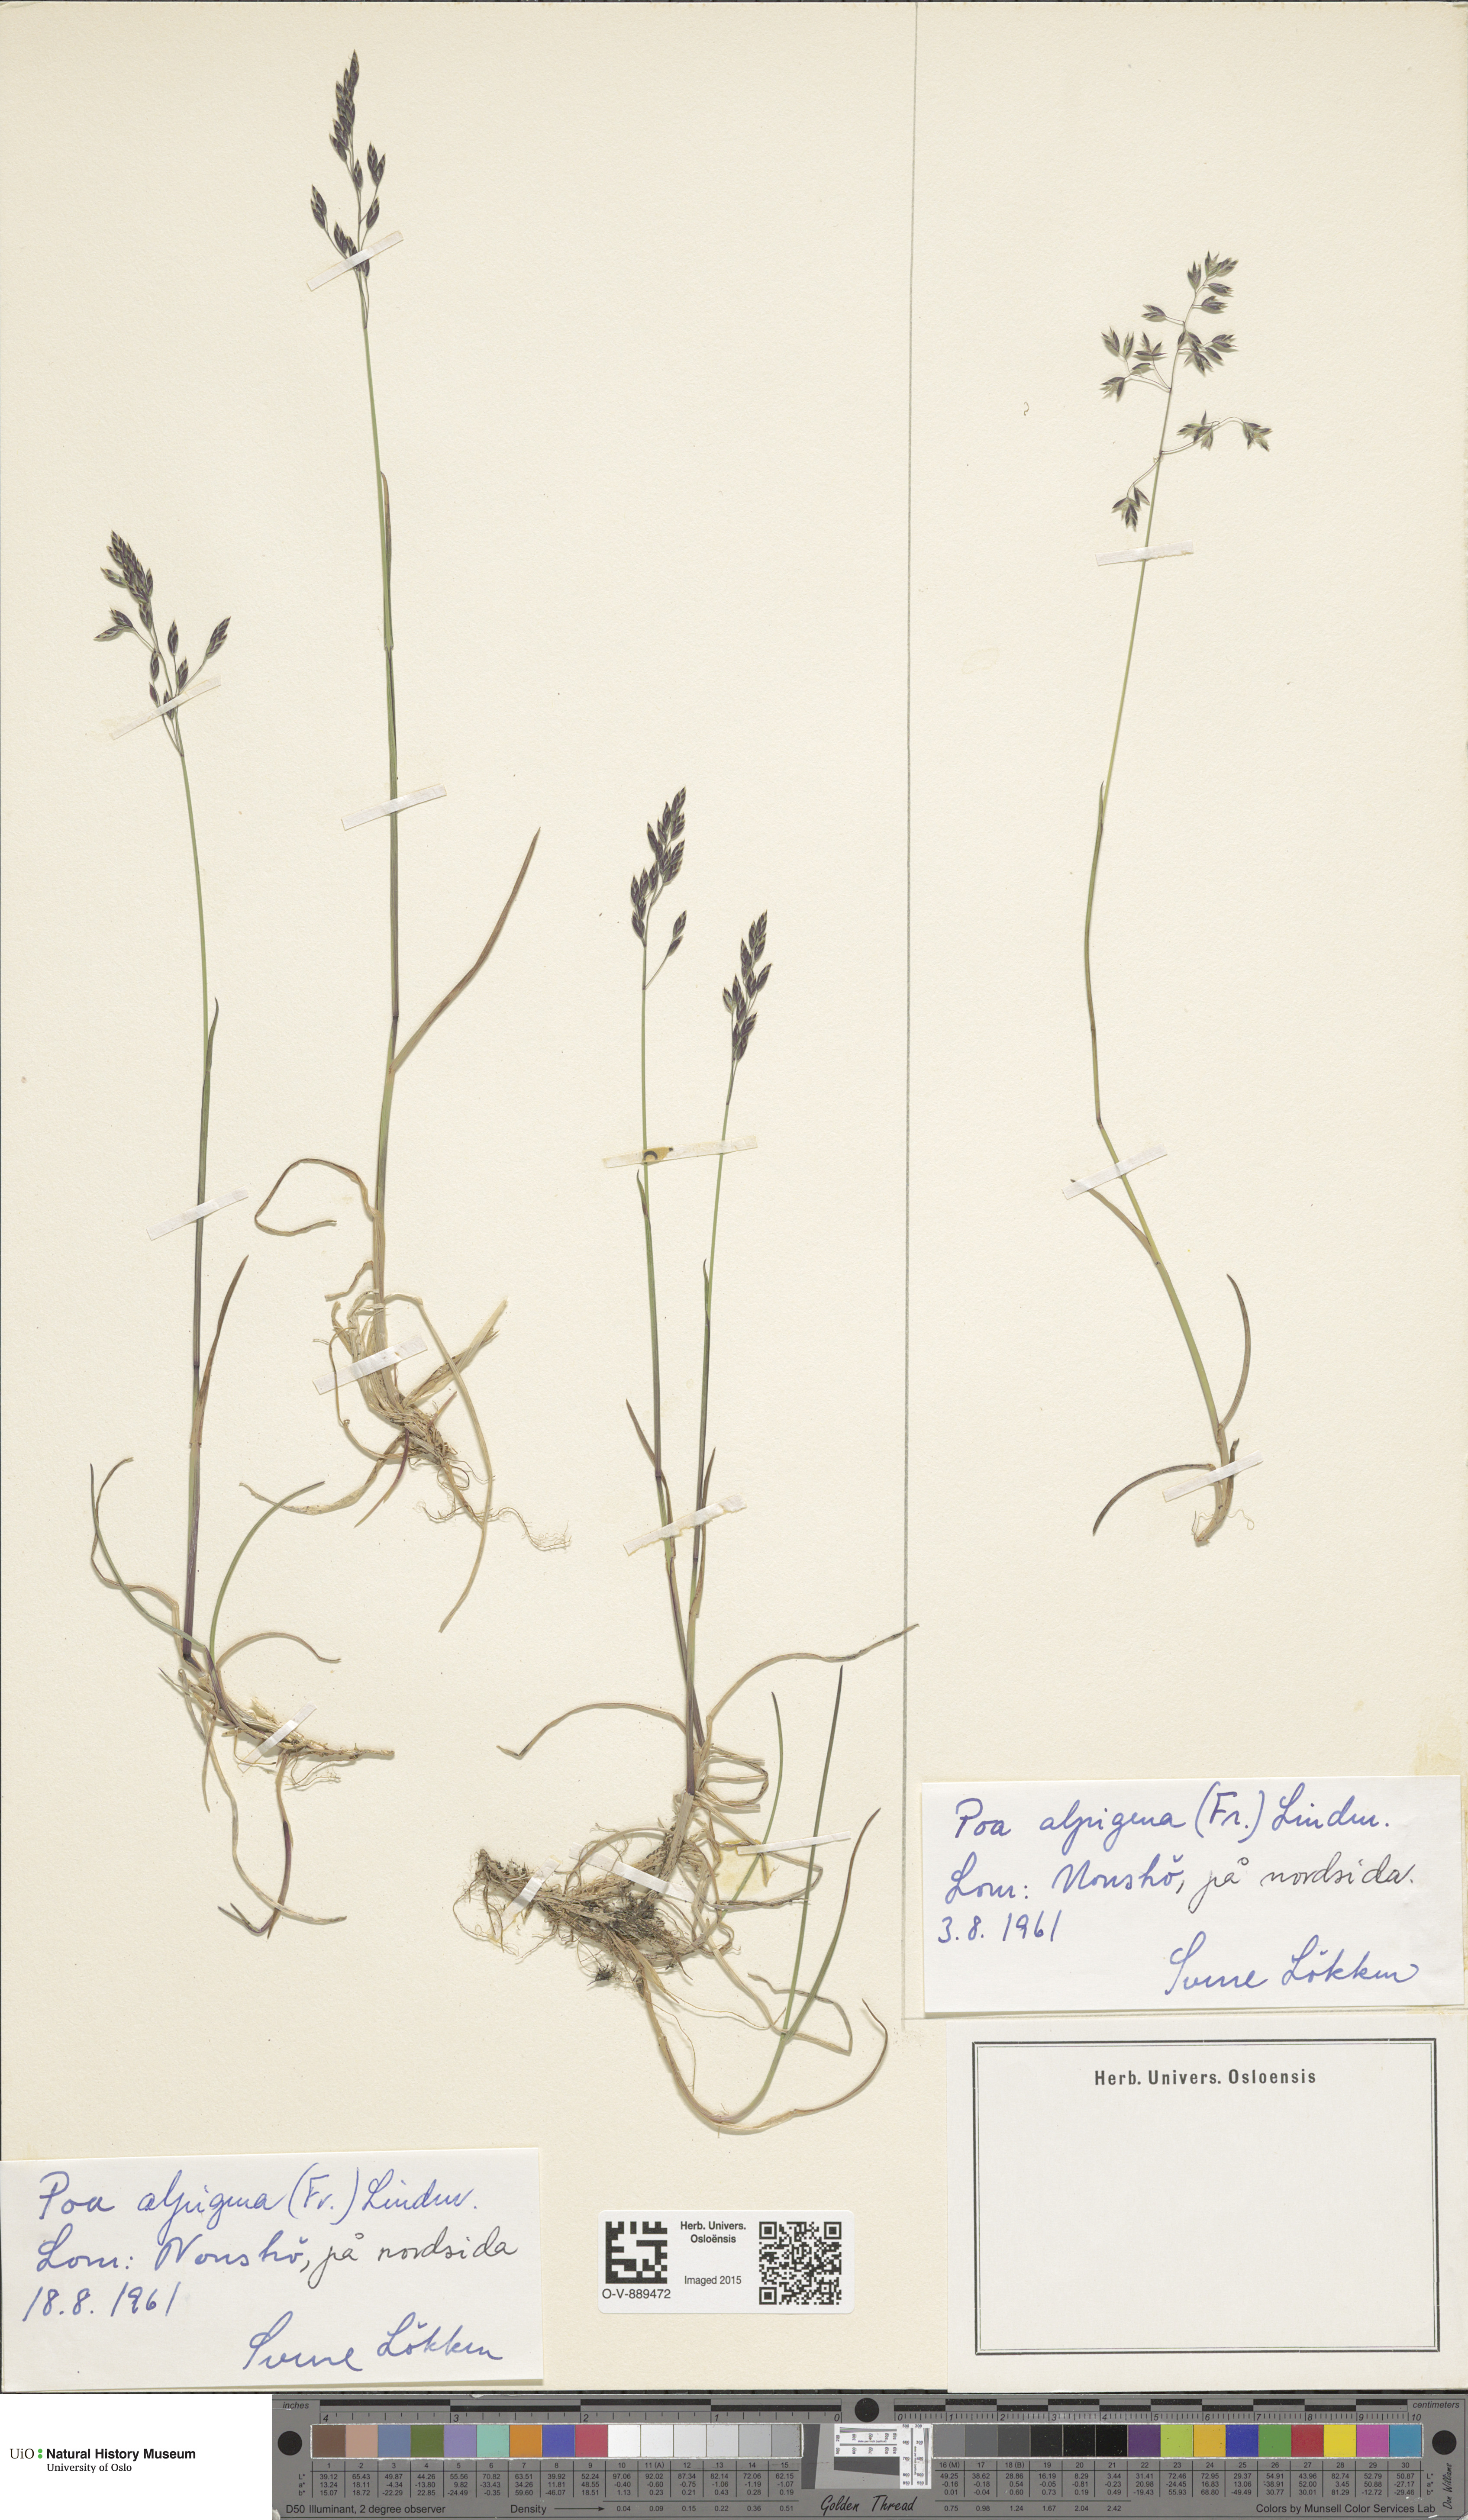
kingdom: Plantae
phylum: Tracheophyta
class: Liliopsida
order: Poales
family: Poaceae
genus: Poa
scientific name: Poa alpigena
